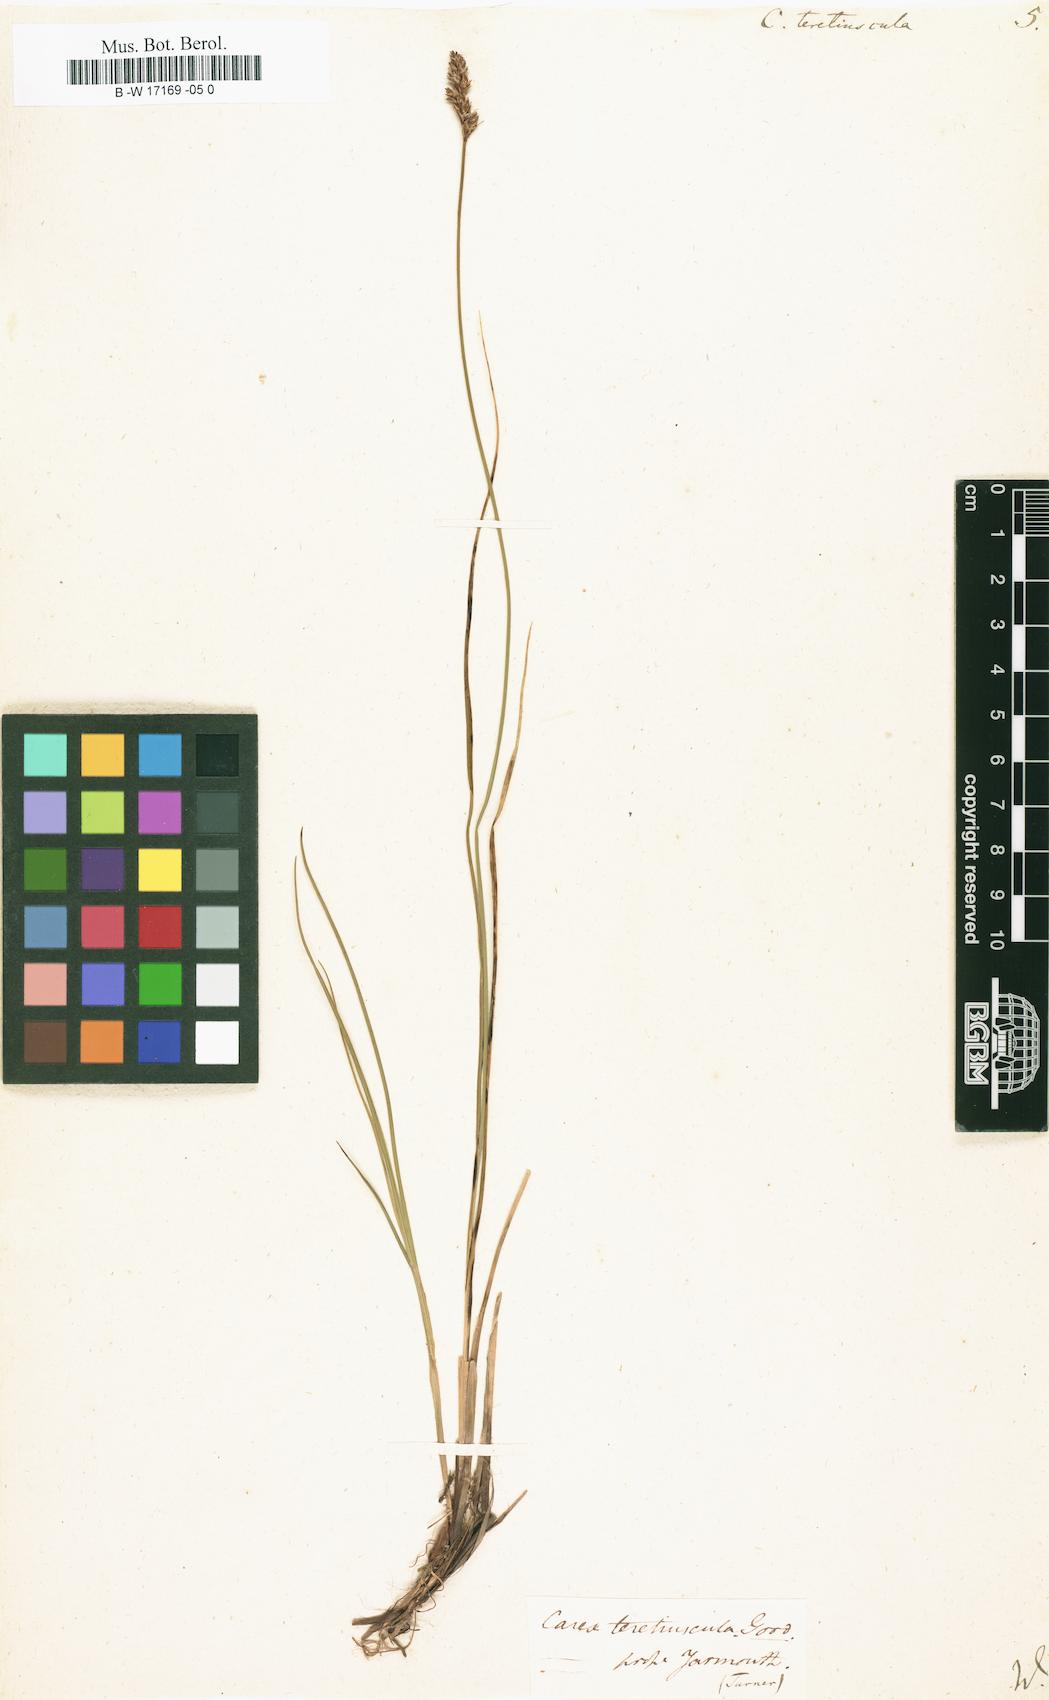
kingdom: Plantae
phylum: Tracheophyta
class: Liliopsida
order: Poales
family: Cyperaceae
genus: Carex
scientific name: Carex diandra
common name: Lesser tussock-sedge
